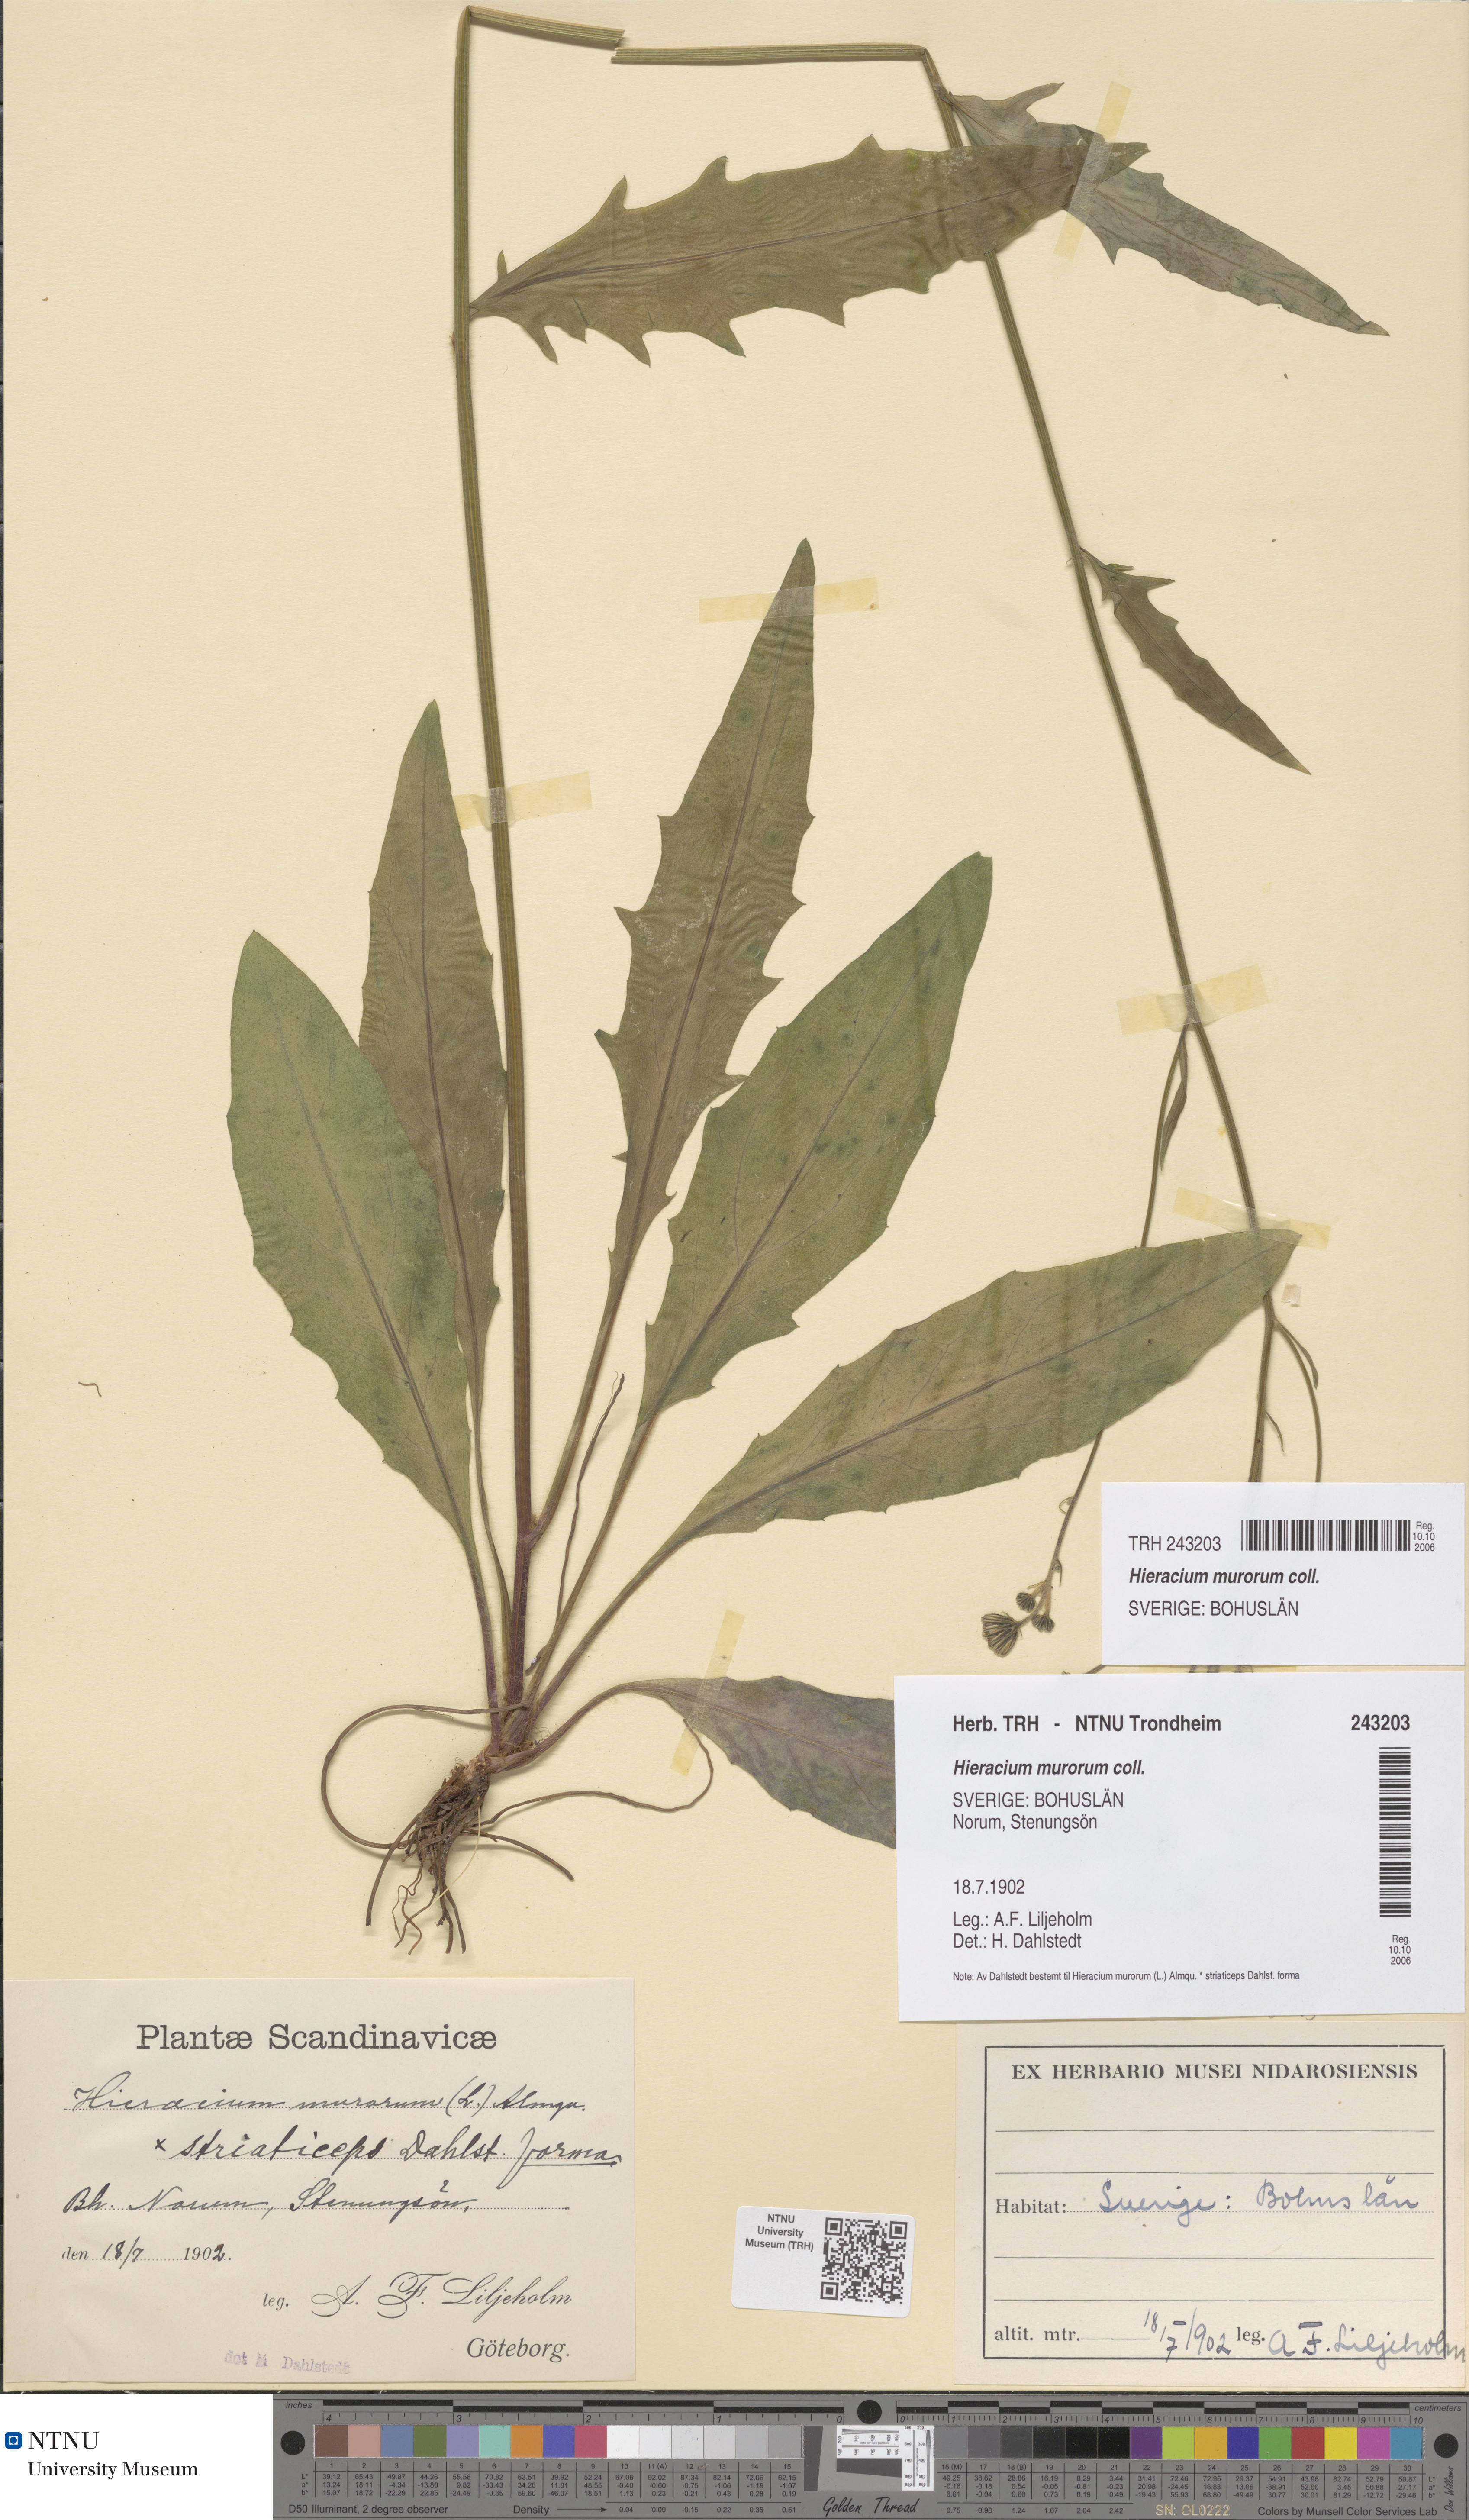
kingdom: Plantae
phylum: Tracheophyta
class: Magnoliopsida
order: Asterales
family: Asteraceae
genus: Hieracium
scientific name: Hieracium murorum
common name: Wall hawkweed
